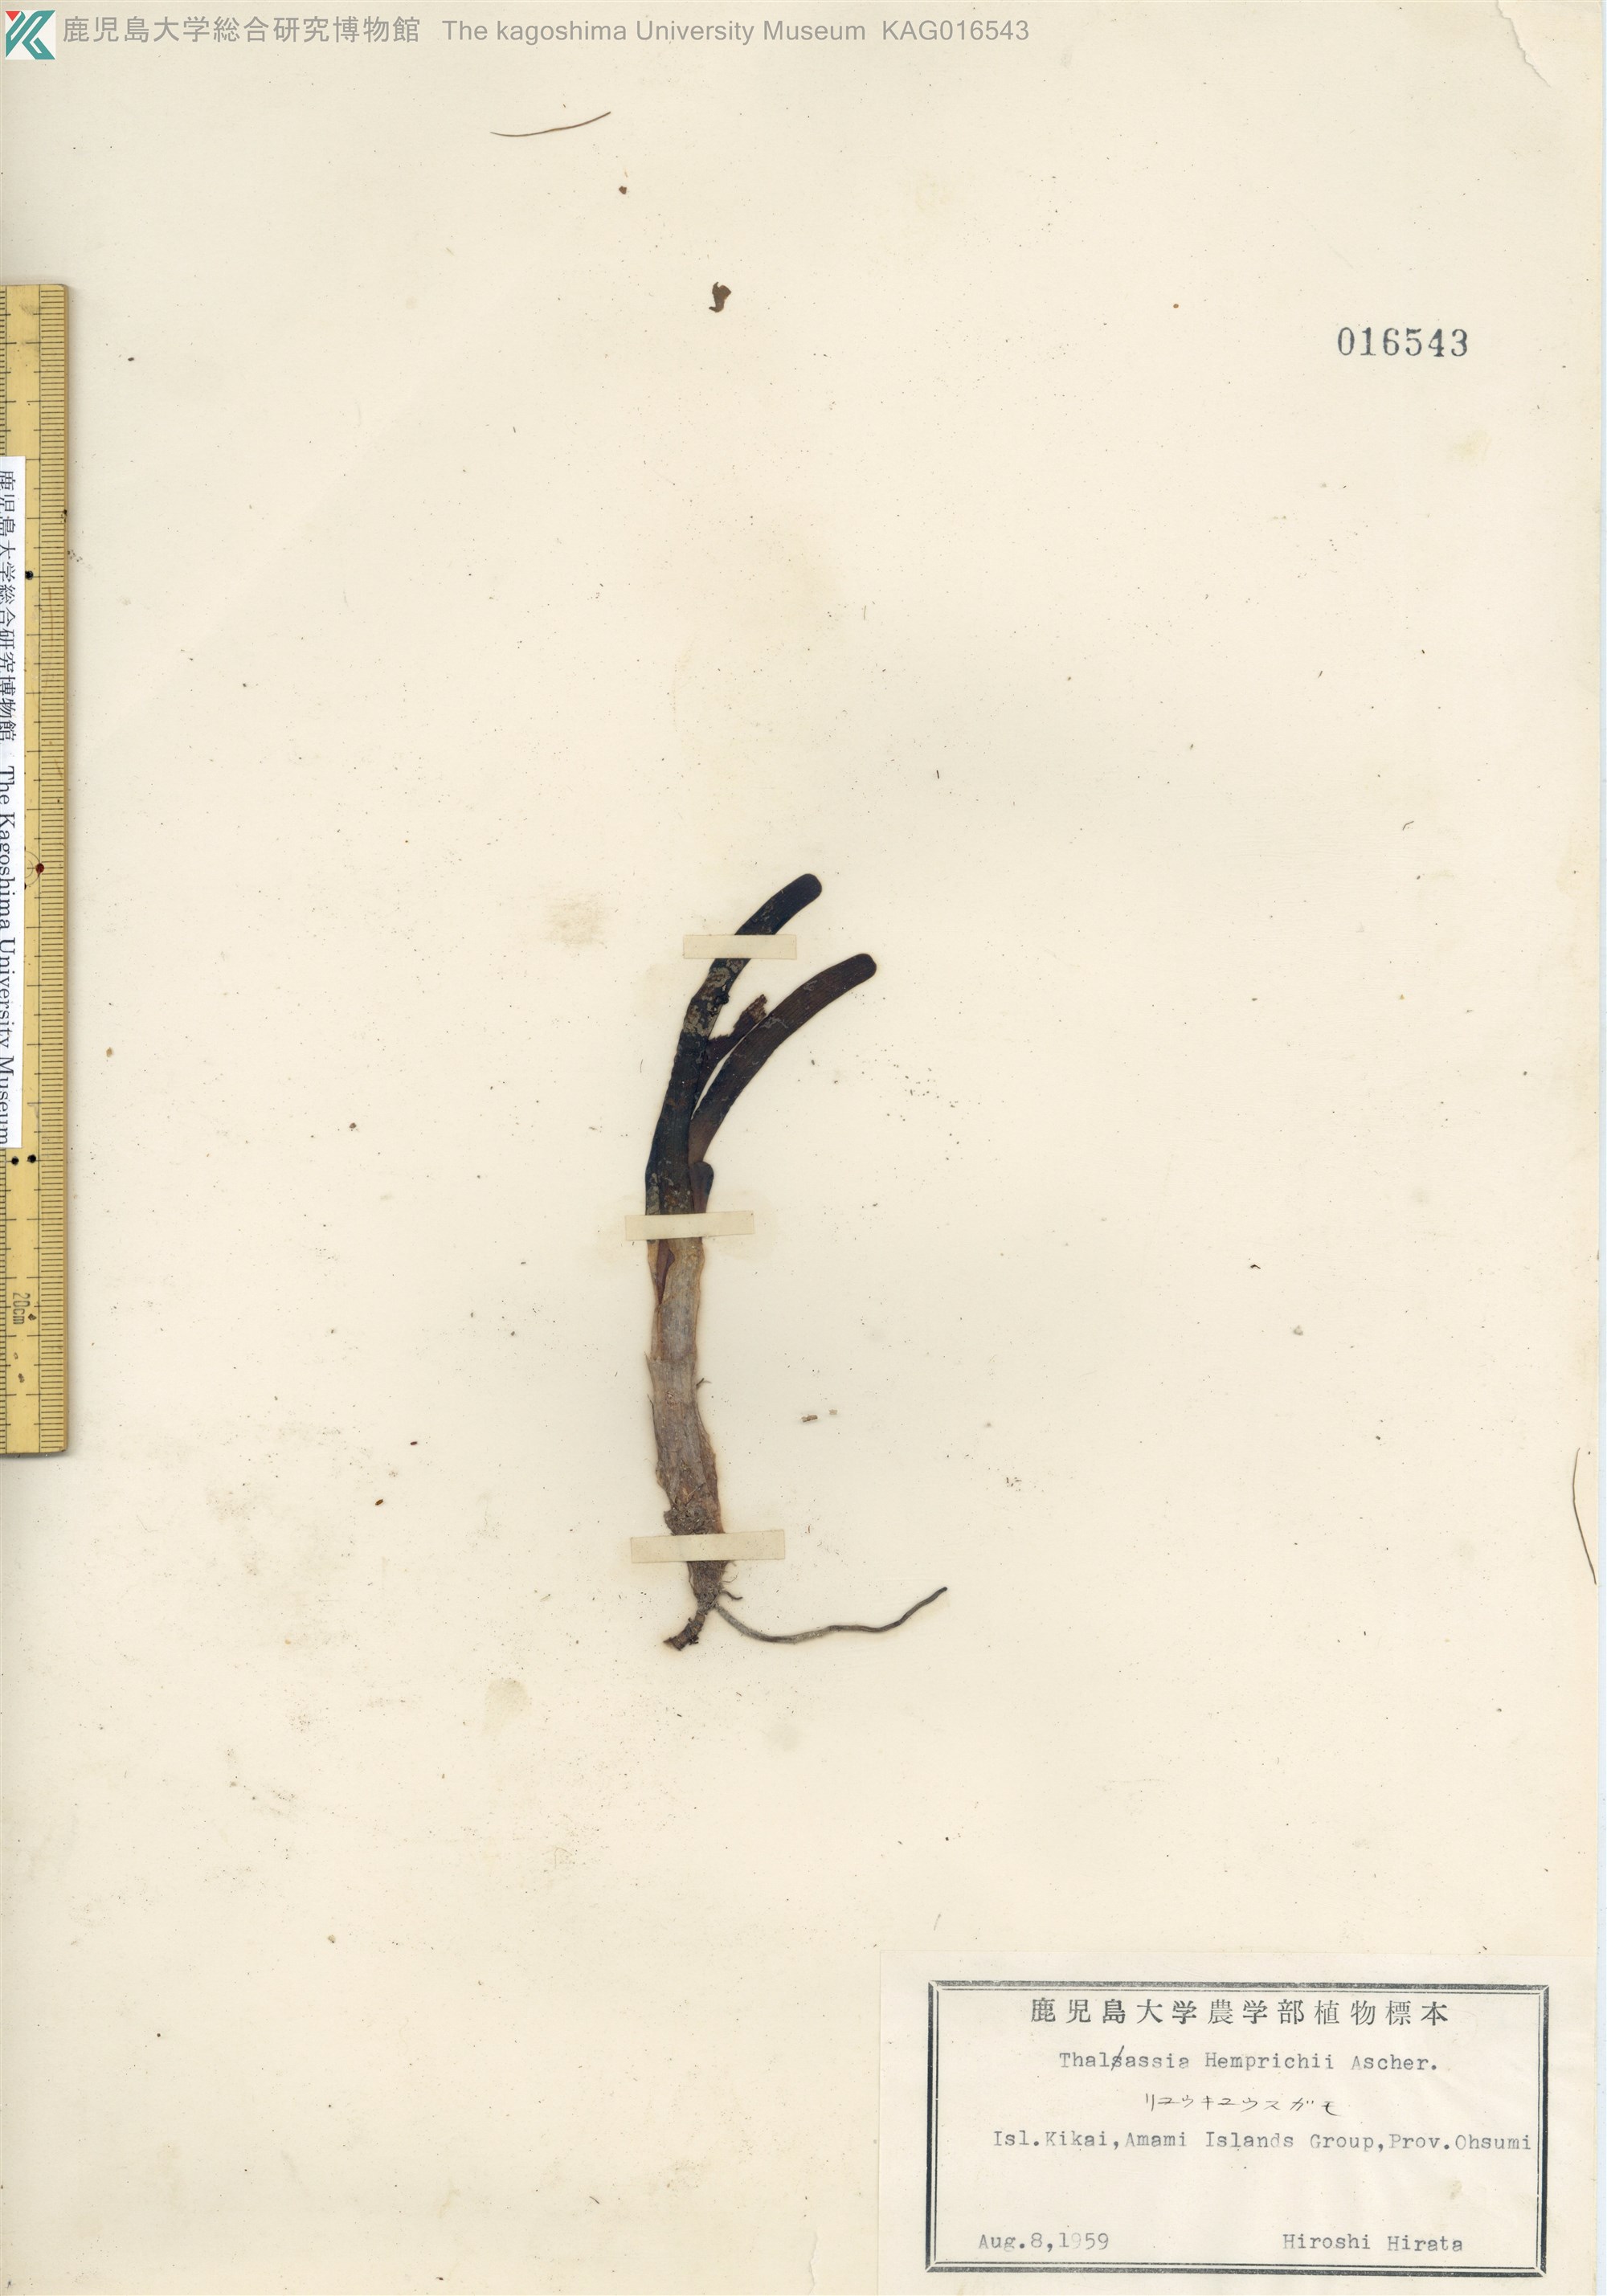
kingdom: Plantae
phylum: Tracheophyta
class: Liliopsida
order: Alismatales
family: Hydrocharitaceae
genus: Thalassia
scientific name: Thalassia hemprichii
